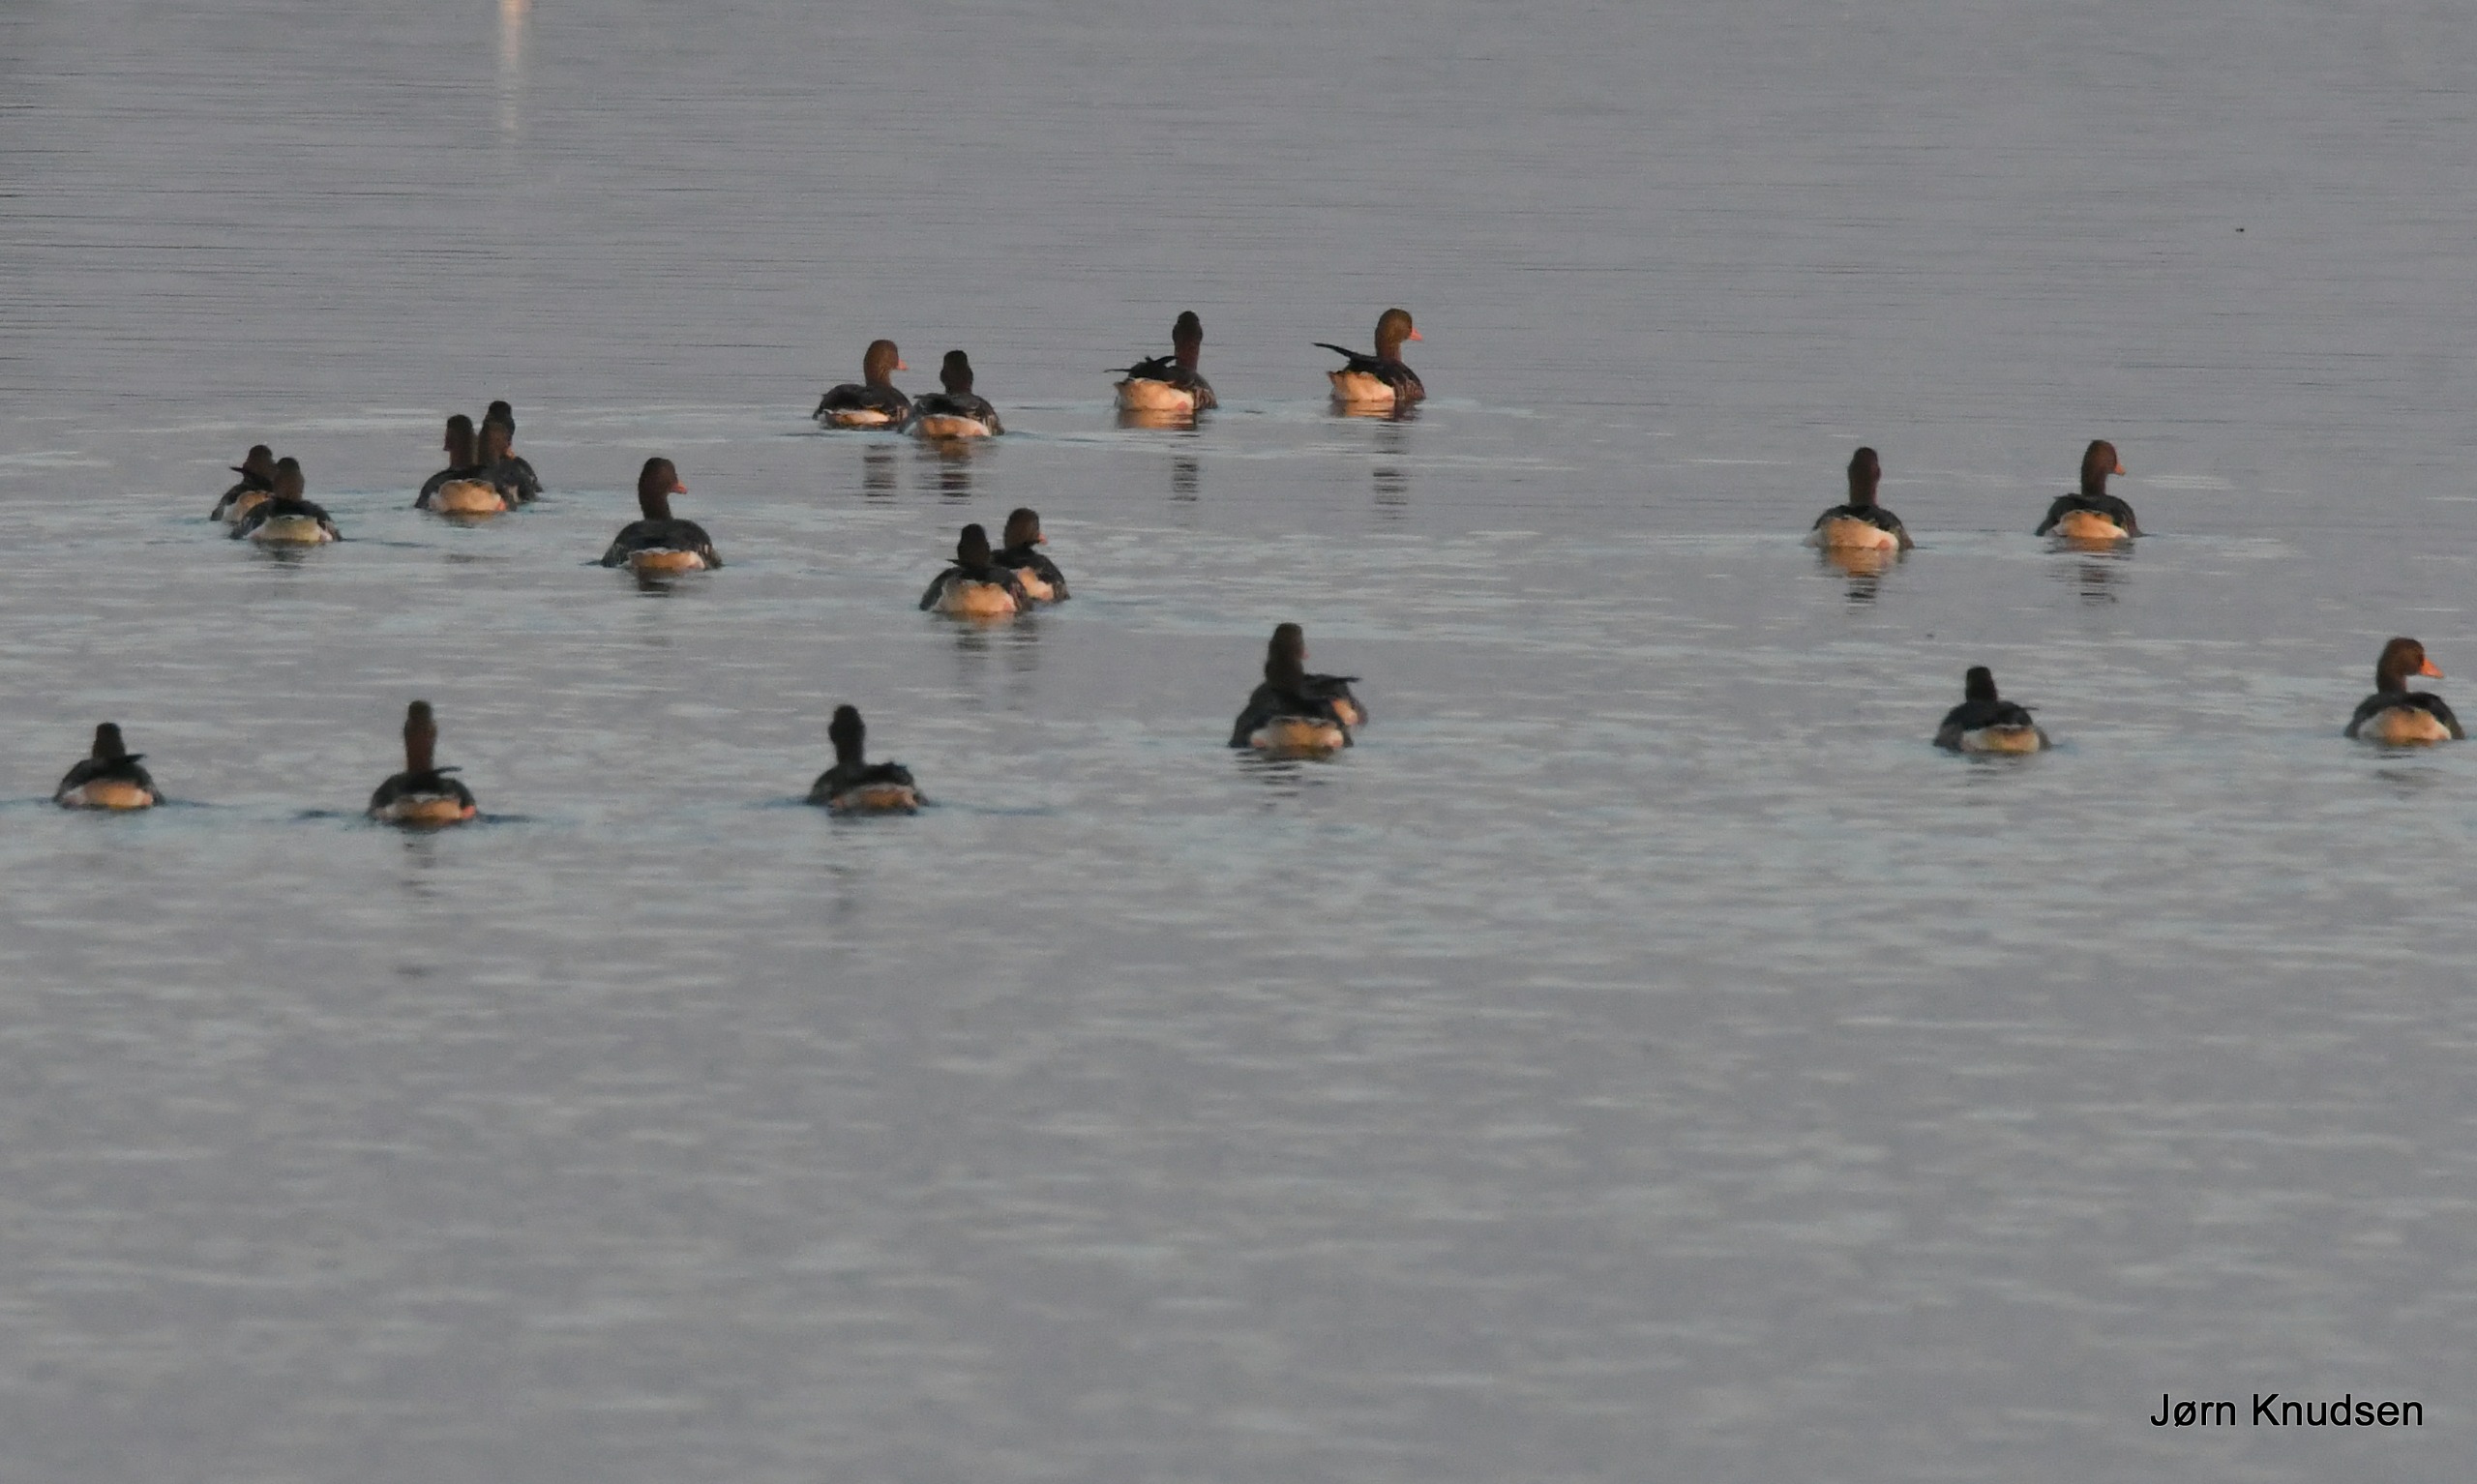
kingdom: Animalia
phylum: Chordata
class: Aves
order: Anseriformes
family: Anatidae
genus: Anser
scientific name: Anser anser
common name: Grågås
